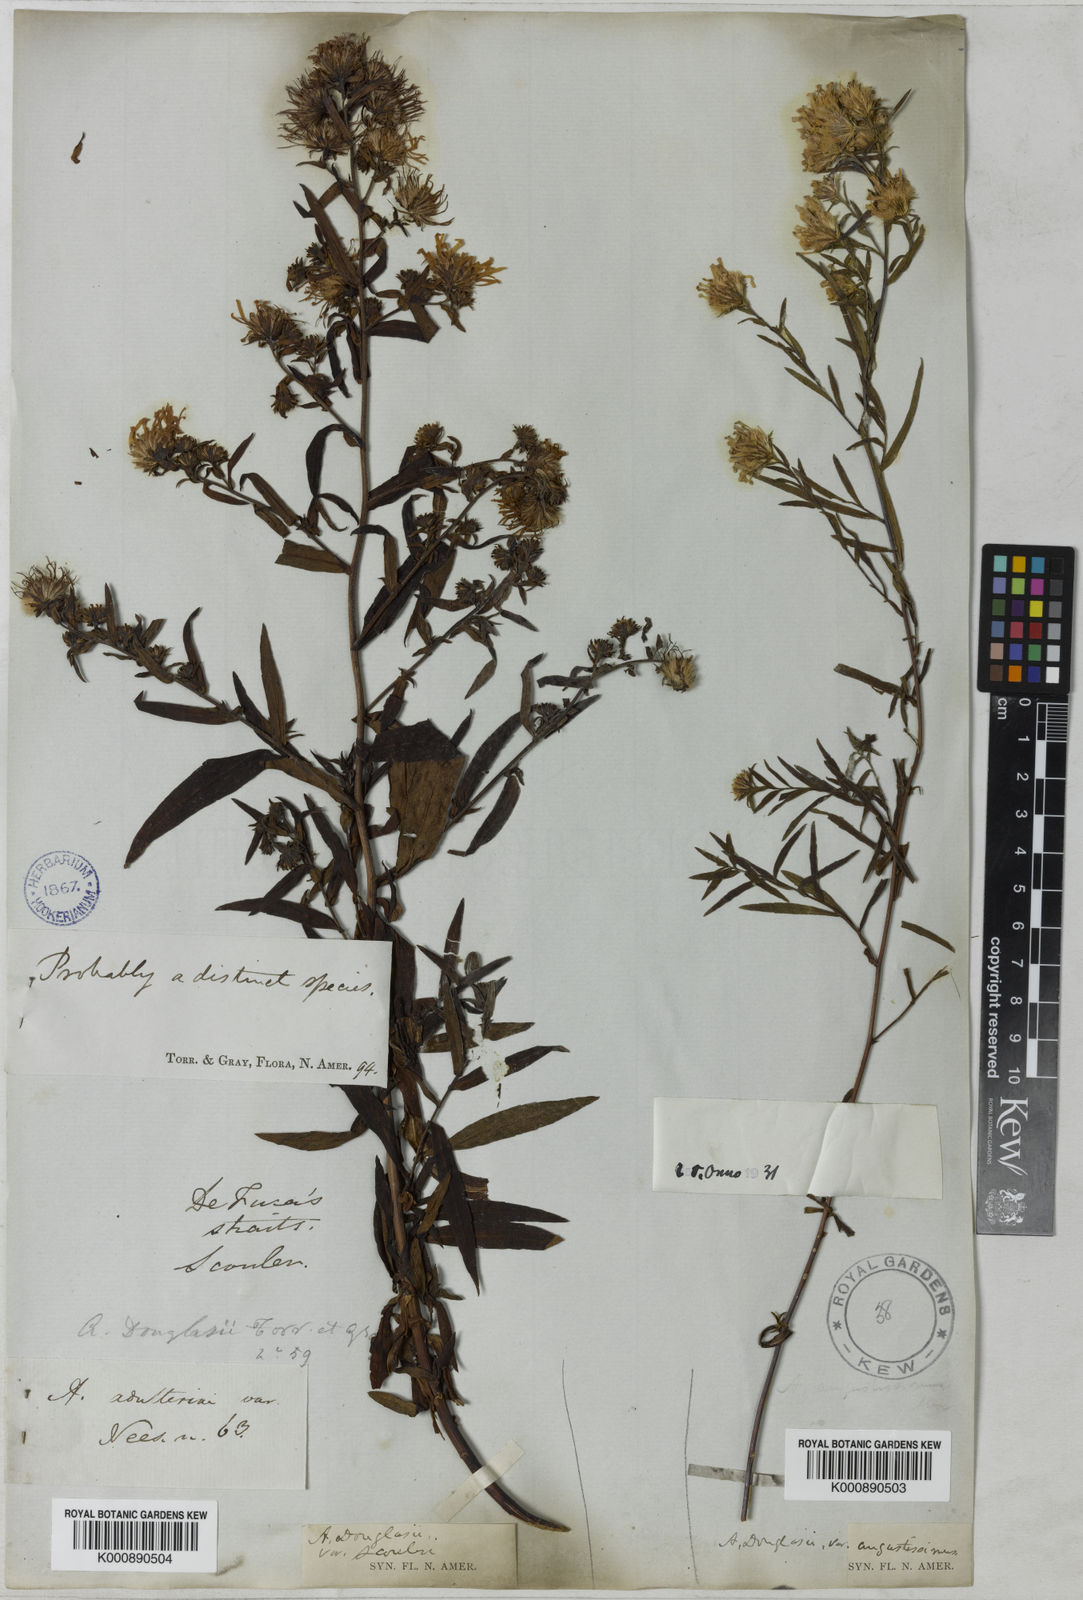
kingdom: Plantae
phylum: Tracheophyta
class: Magnoliopsida
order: Asterales
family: Asteraceae
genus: Aster
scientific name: Aster
